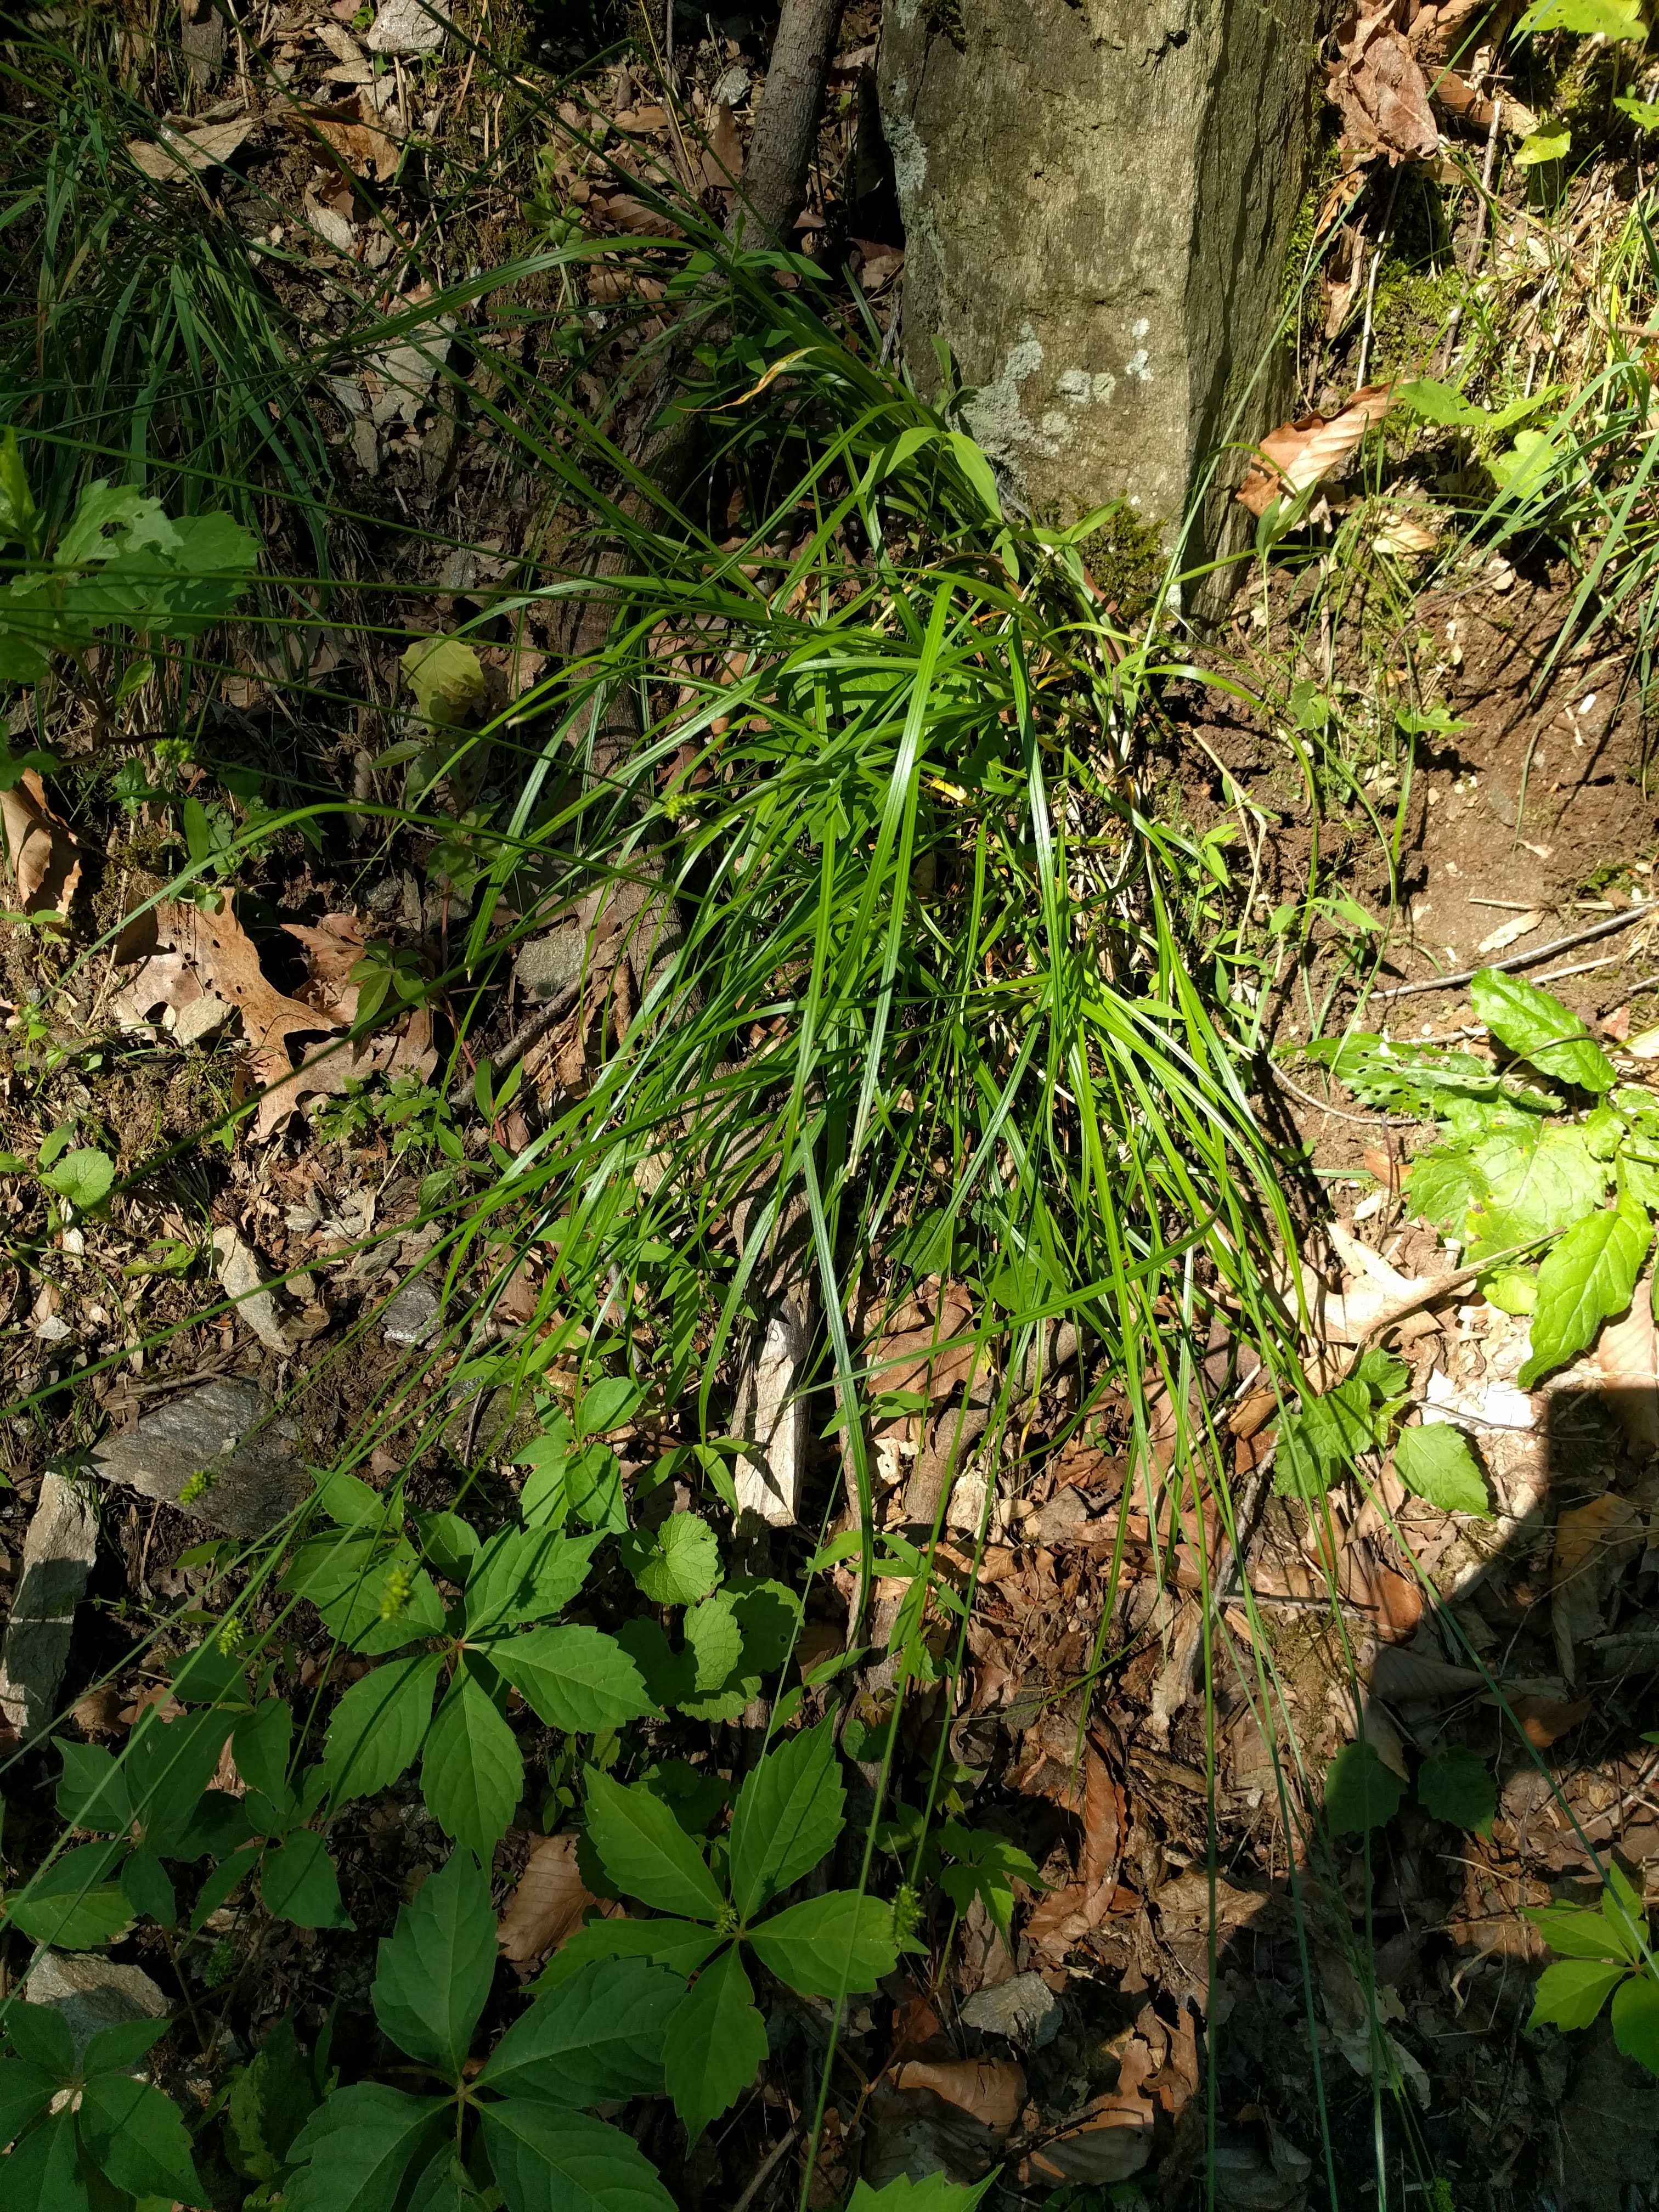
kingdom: Plantae
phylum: Tracheophyta
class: Liliopsida
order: Poales
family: Cyperaceae
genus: Carex
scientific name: Carex cephalophora
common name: Oval-headed sedge
